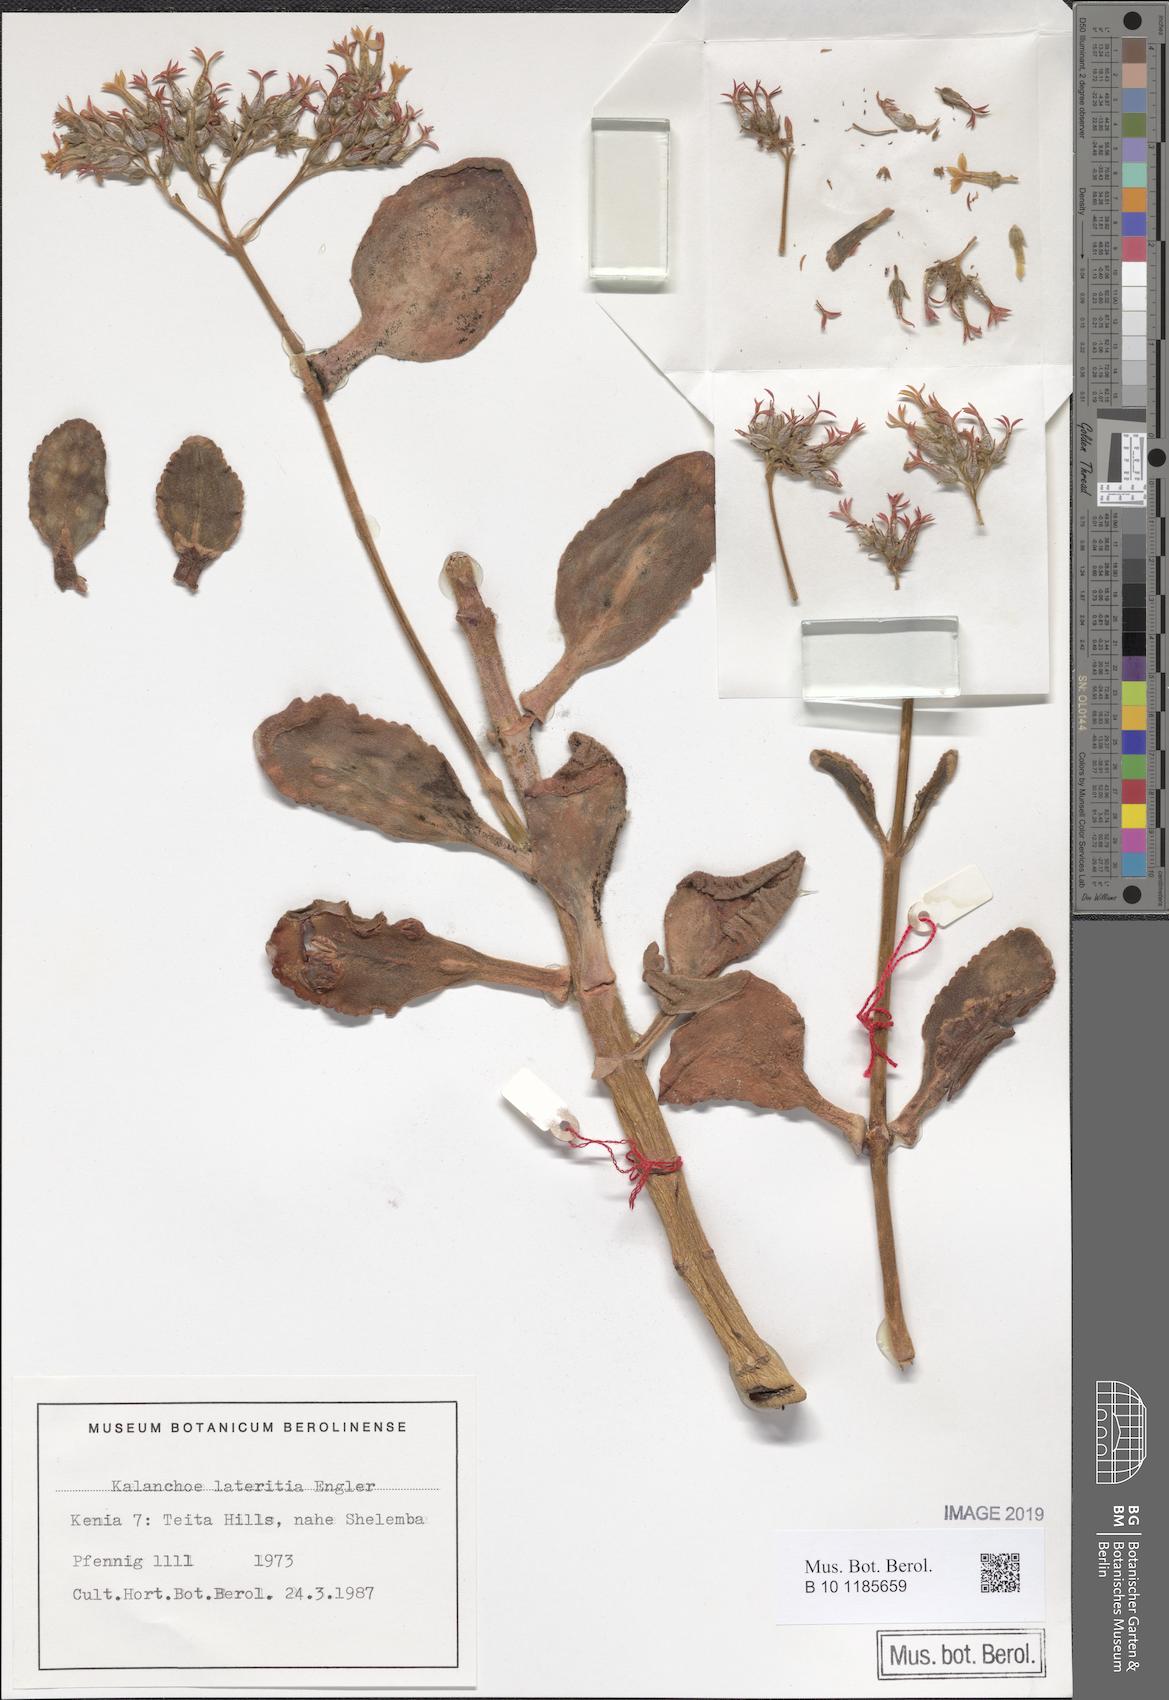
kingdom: Plantae
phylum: Tracheophyta
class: Magnoliopsida
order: Saxifragales
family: Crassulaceae
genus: Kalanchoe
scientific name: Kalanchoe lateritia
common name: Kalanchoe
